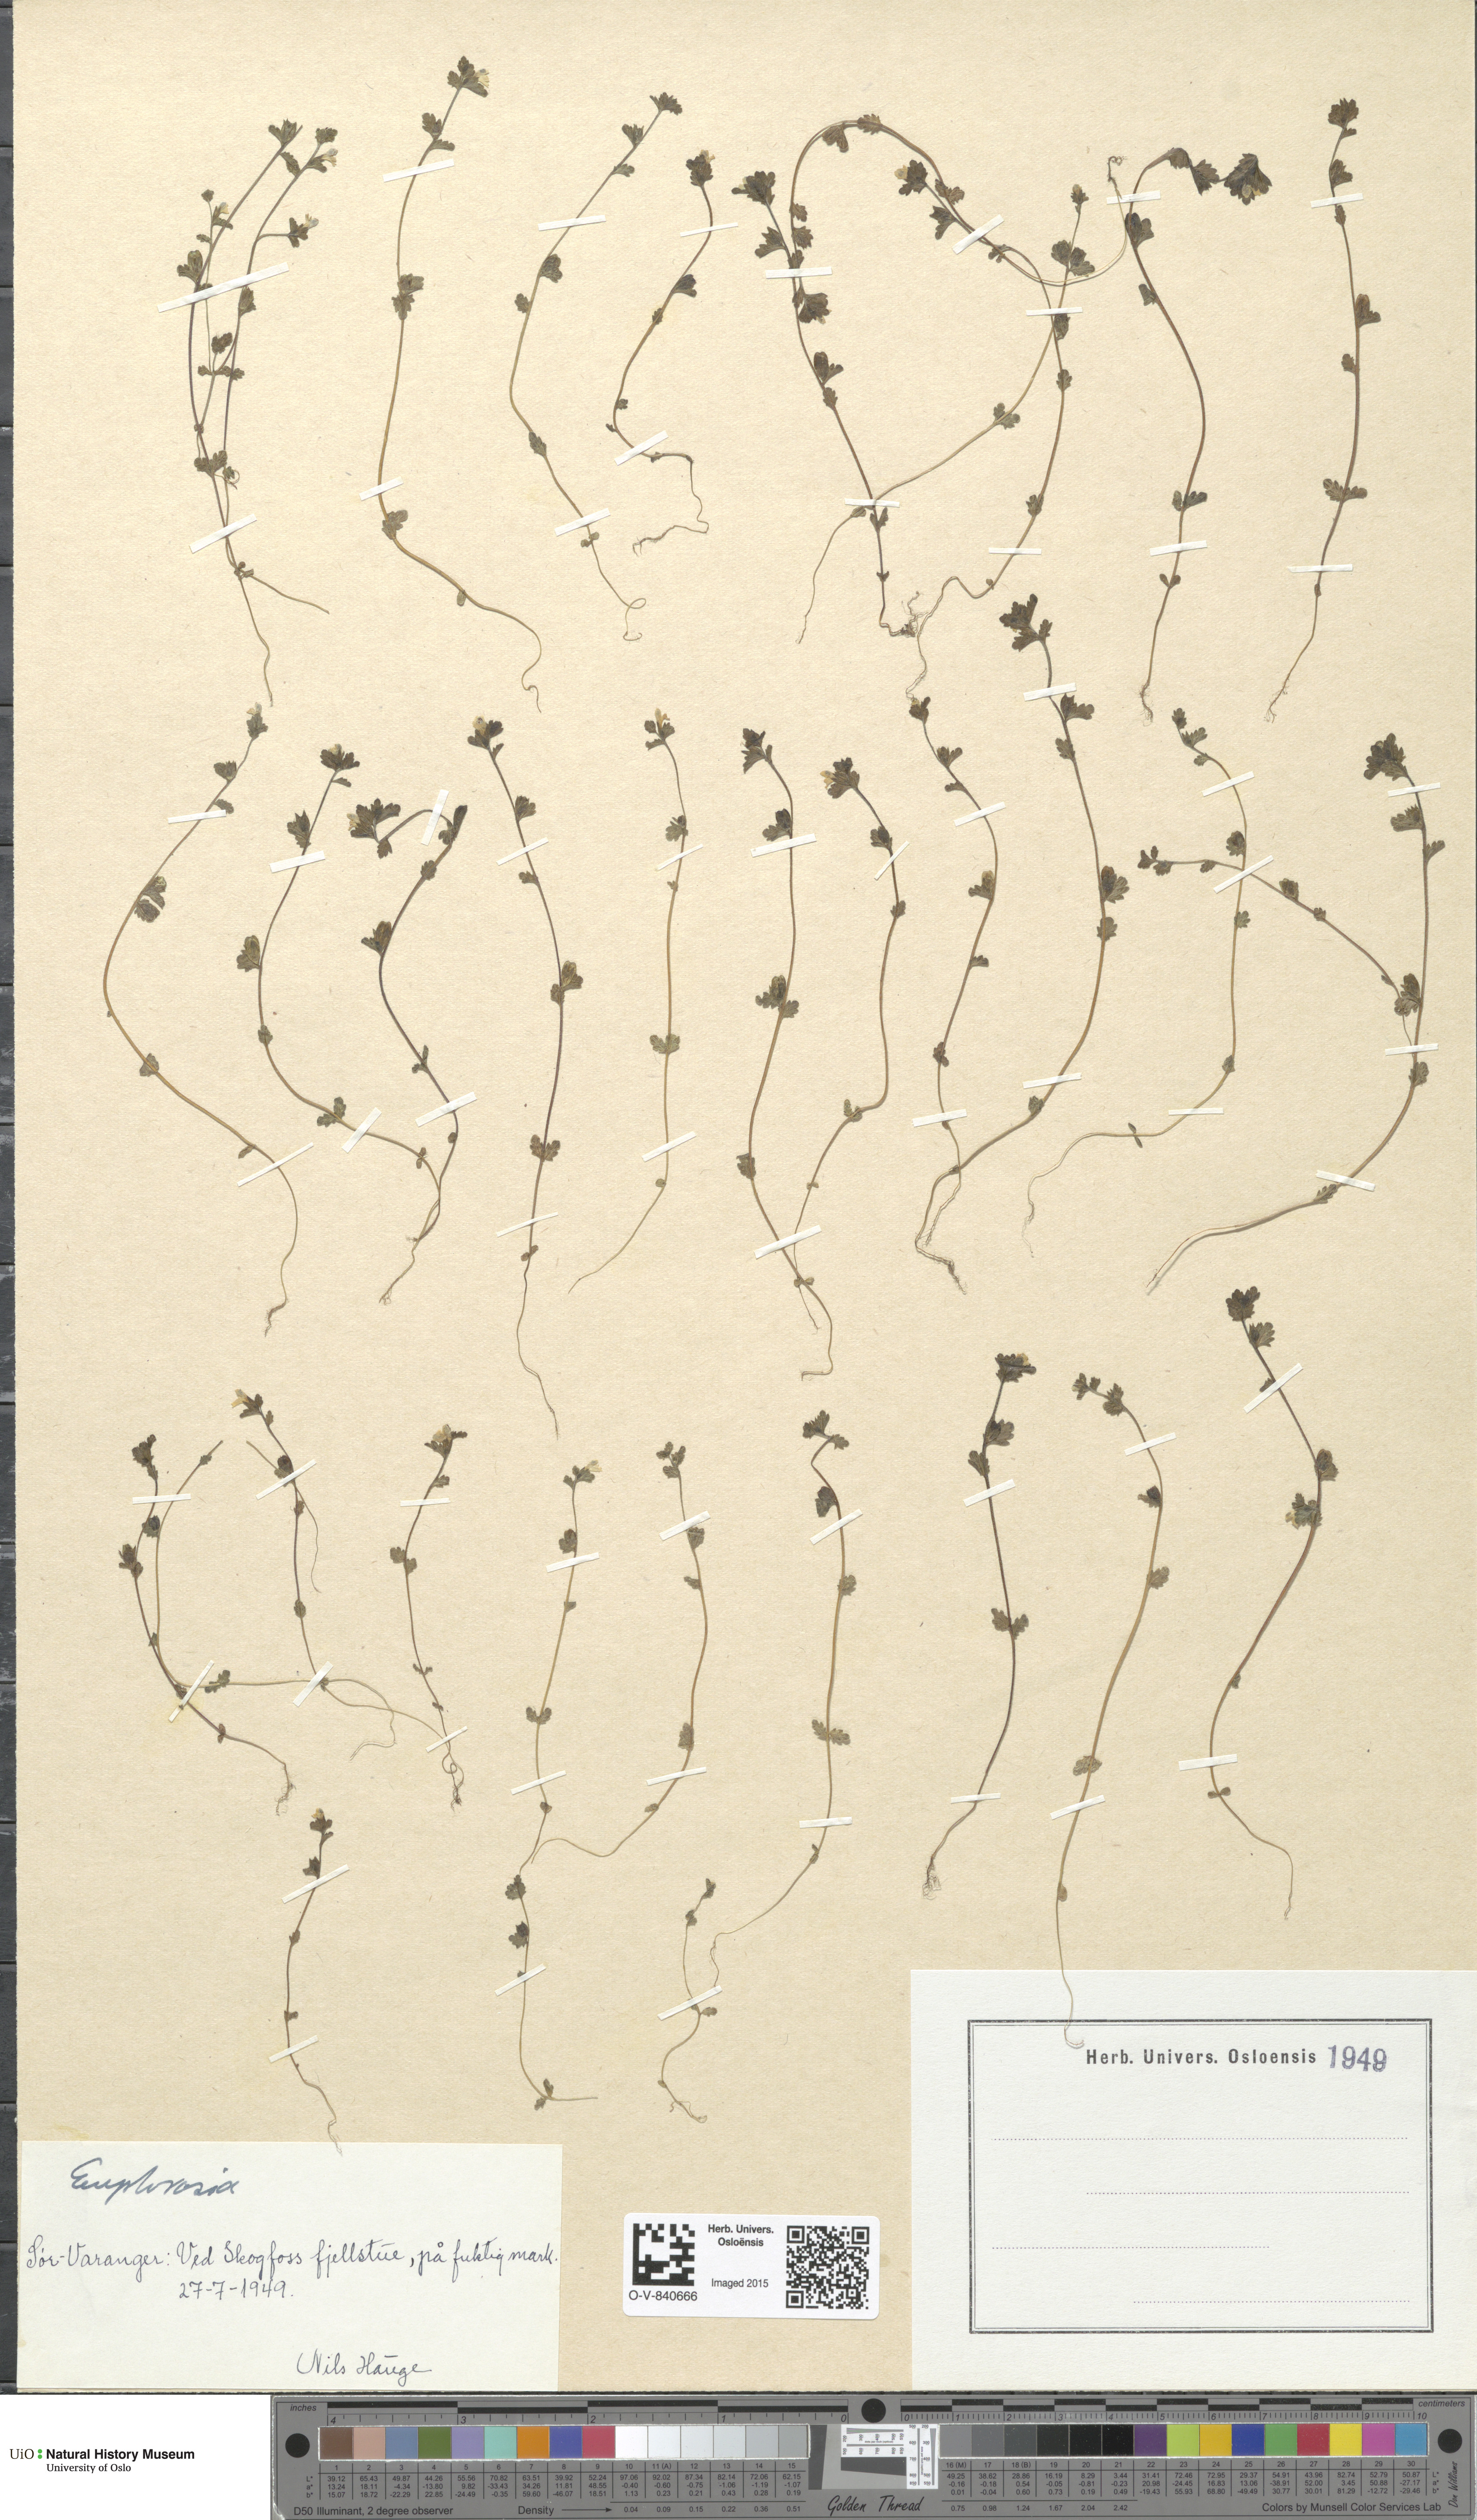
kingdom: Plantae
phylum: Tracheophyta
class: Magnoliopsida
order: Lamiales
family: Orobanchaceae
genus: Euphrasia
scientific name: Euphrasia
